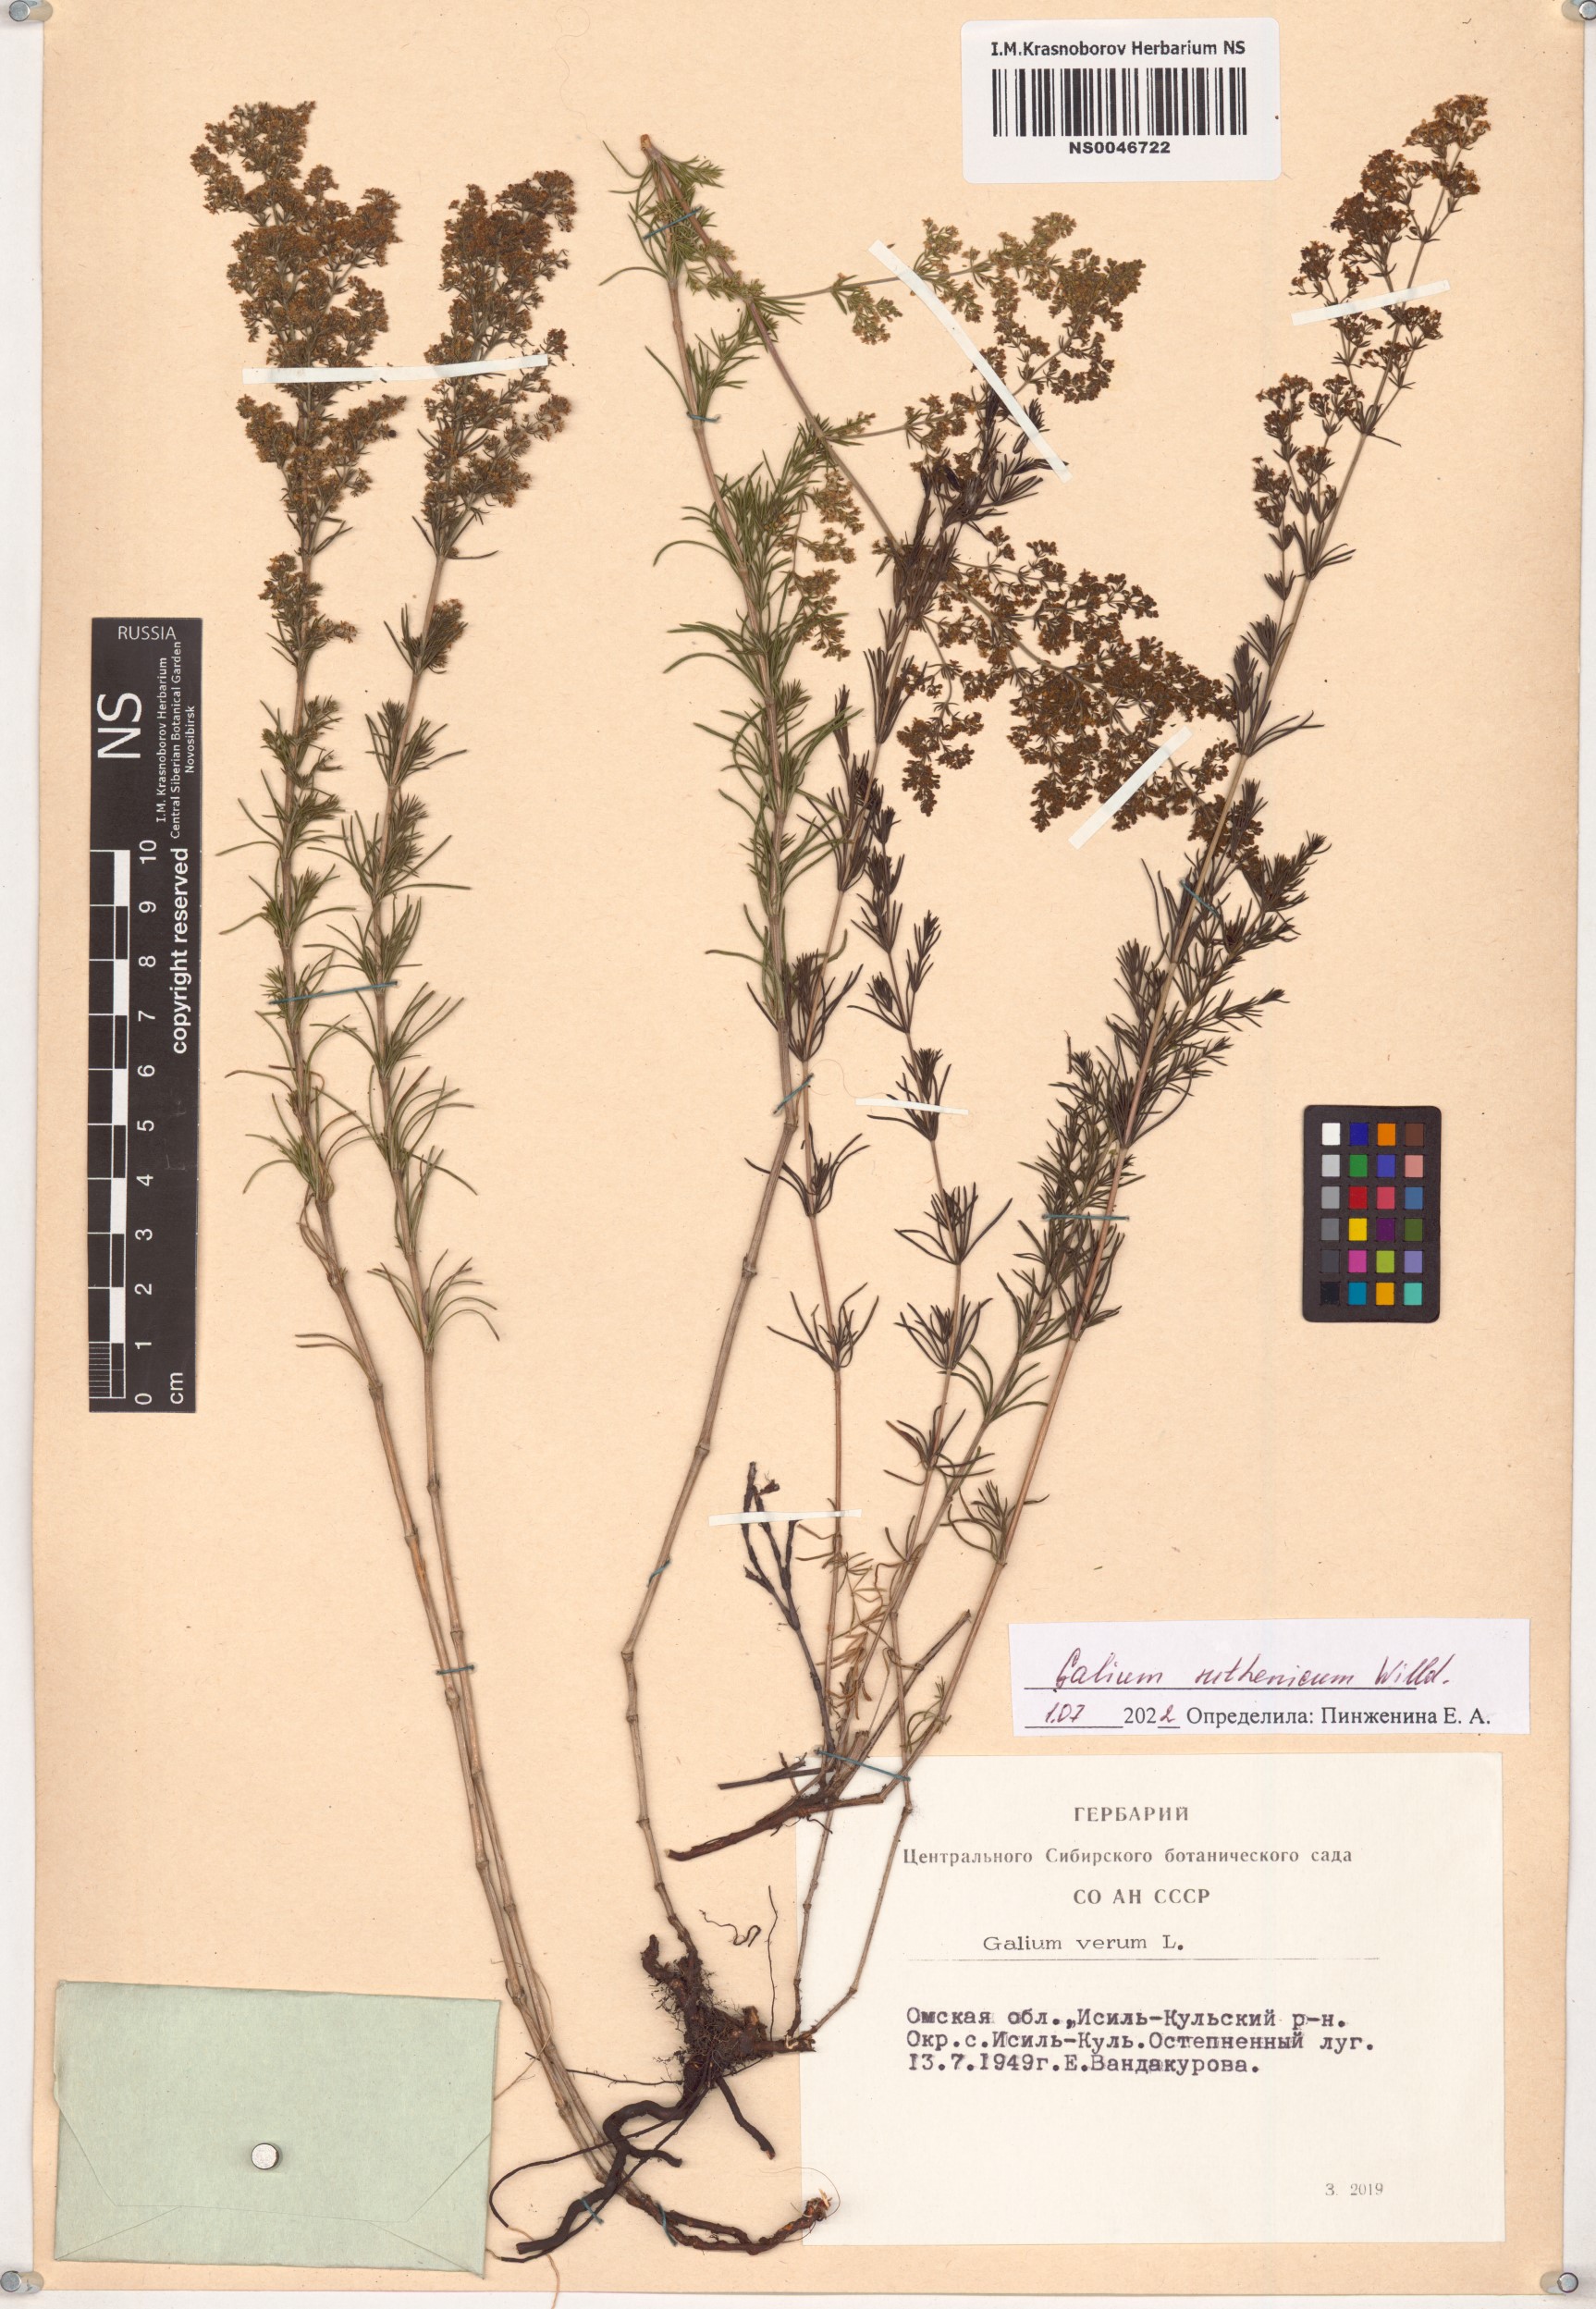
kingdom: Plantae
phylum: Tracheophyta
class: Magnoliopsida
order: Gentianales
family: Rubiaceae
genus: Galium
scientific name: Galium verum
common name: Lady's bedstraw
